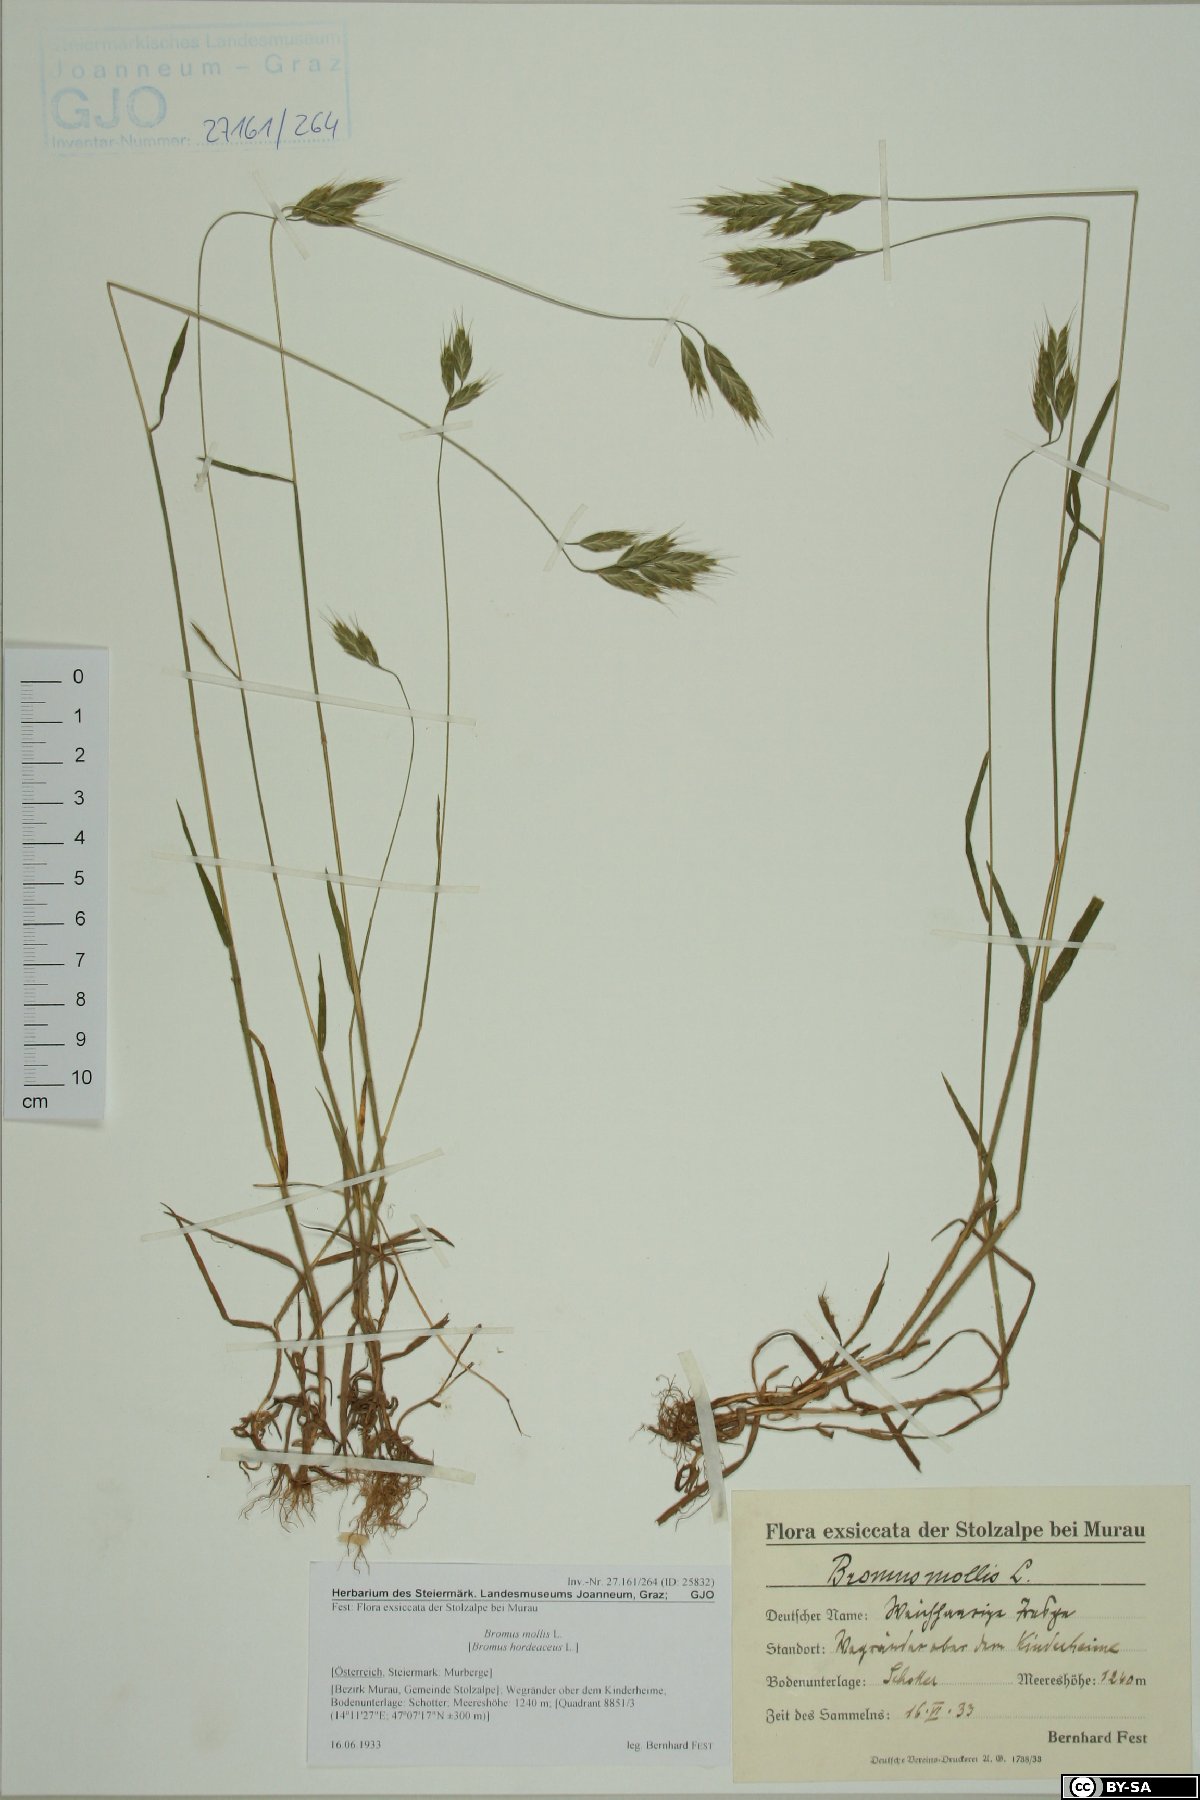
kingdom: Plantae
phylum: Tracheophyta
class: Liliopsida
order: Poales
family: Poaceae
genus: Bromus
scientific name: Bromus hordeaceus
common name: Soft brome
